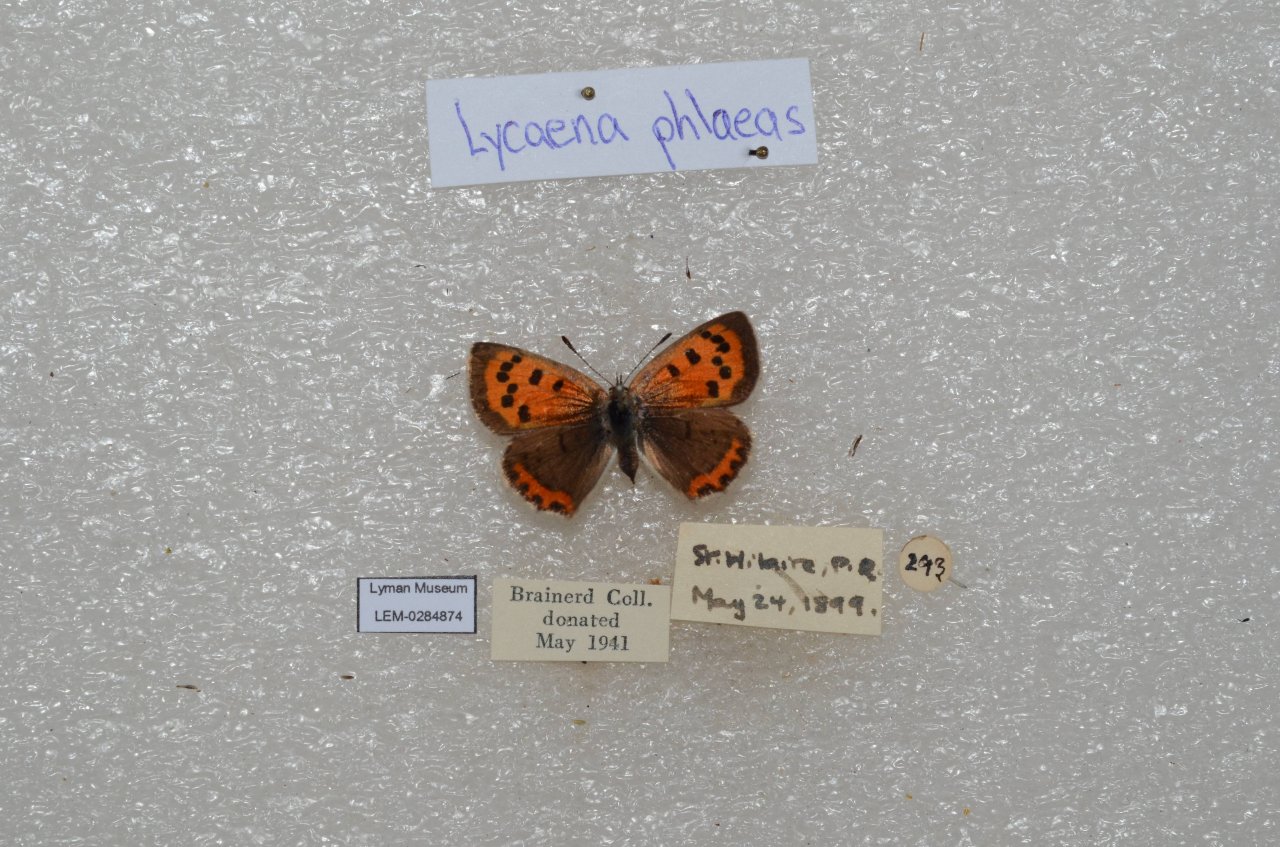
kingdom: Animalia
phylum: Arthropoda
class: Insecta
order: Lepidoptera
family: Lycaenidae
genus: Lycaena
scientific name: Lycaena phlaeas
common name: American Copper
